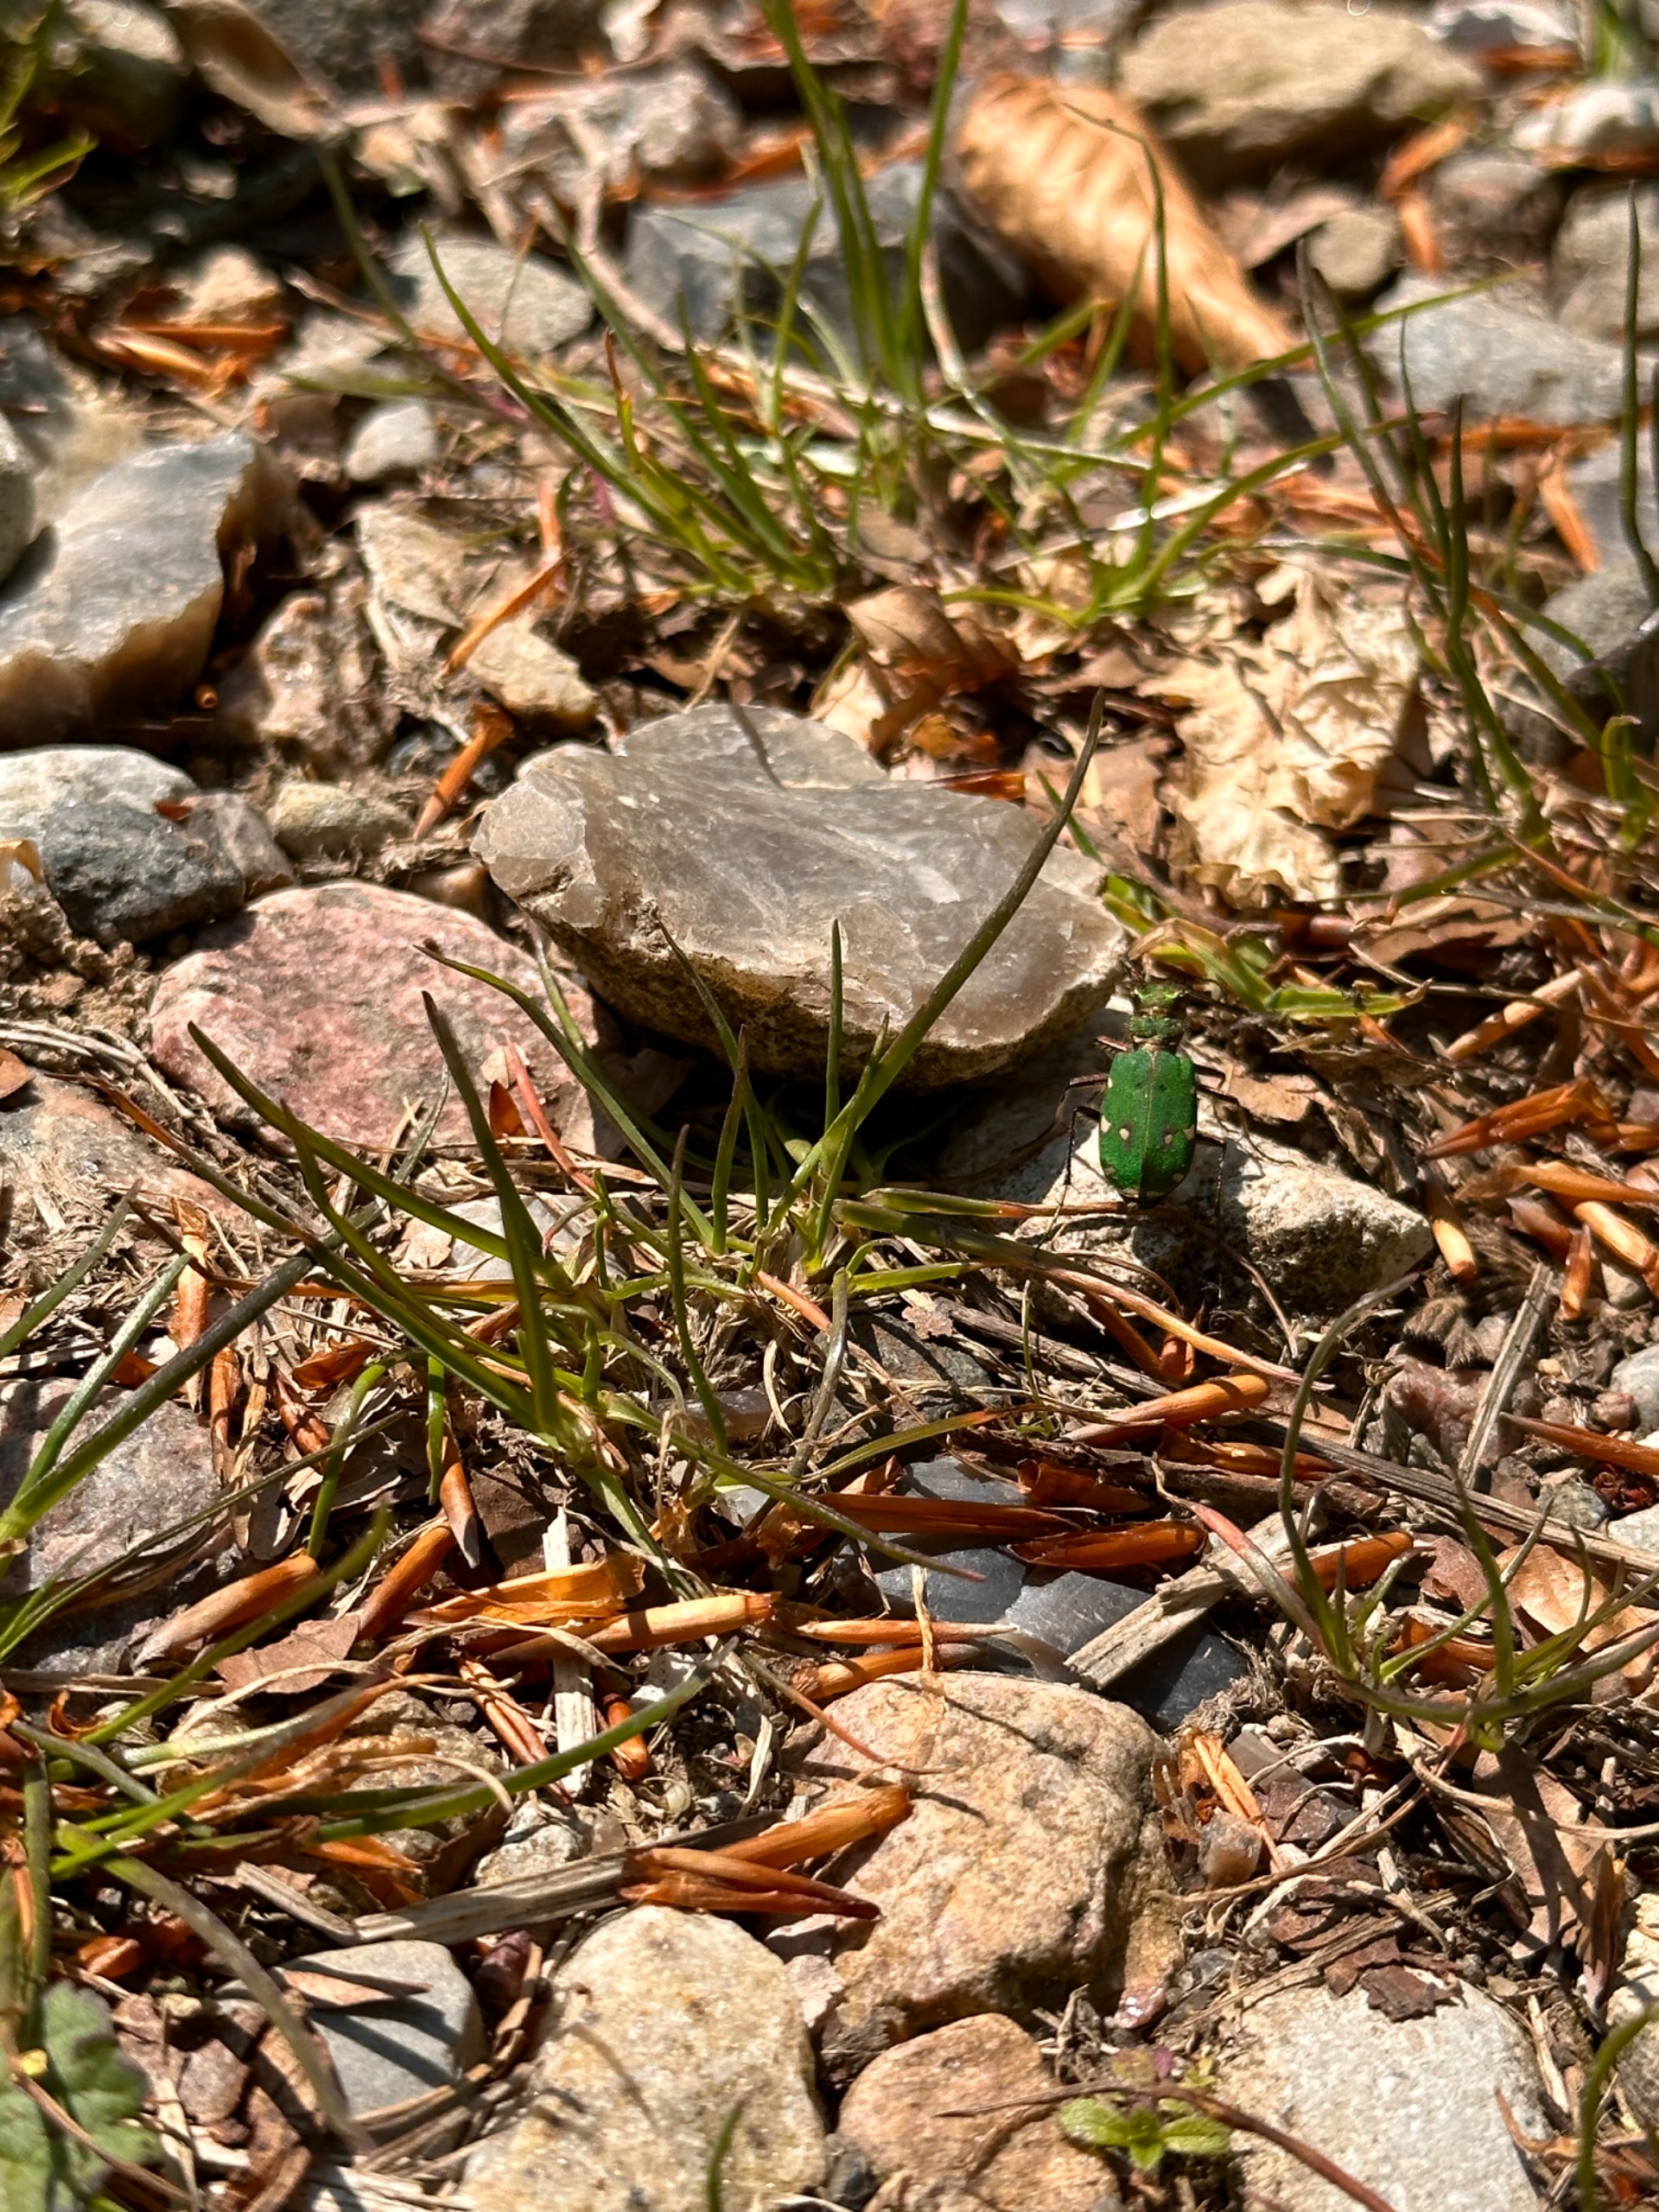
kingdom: Animalia
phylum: Arthropoda
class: Insecta
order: Coleoptera
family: Carabidae
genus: Cicindela
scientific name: Cicindela campestris
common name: Grøn sandspringer
